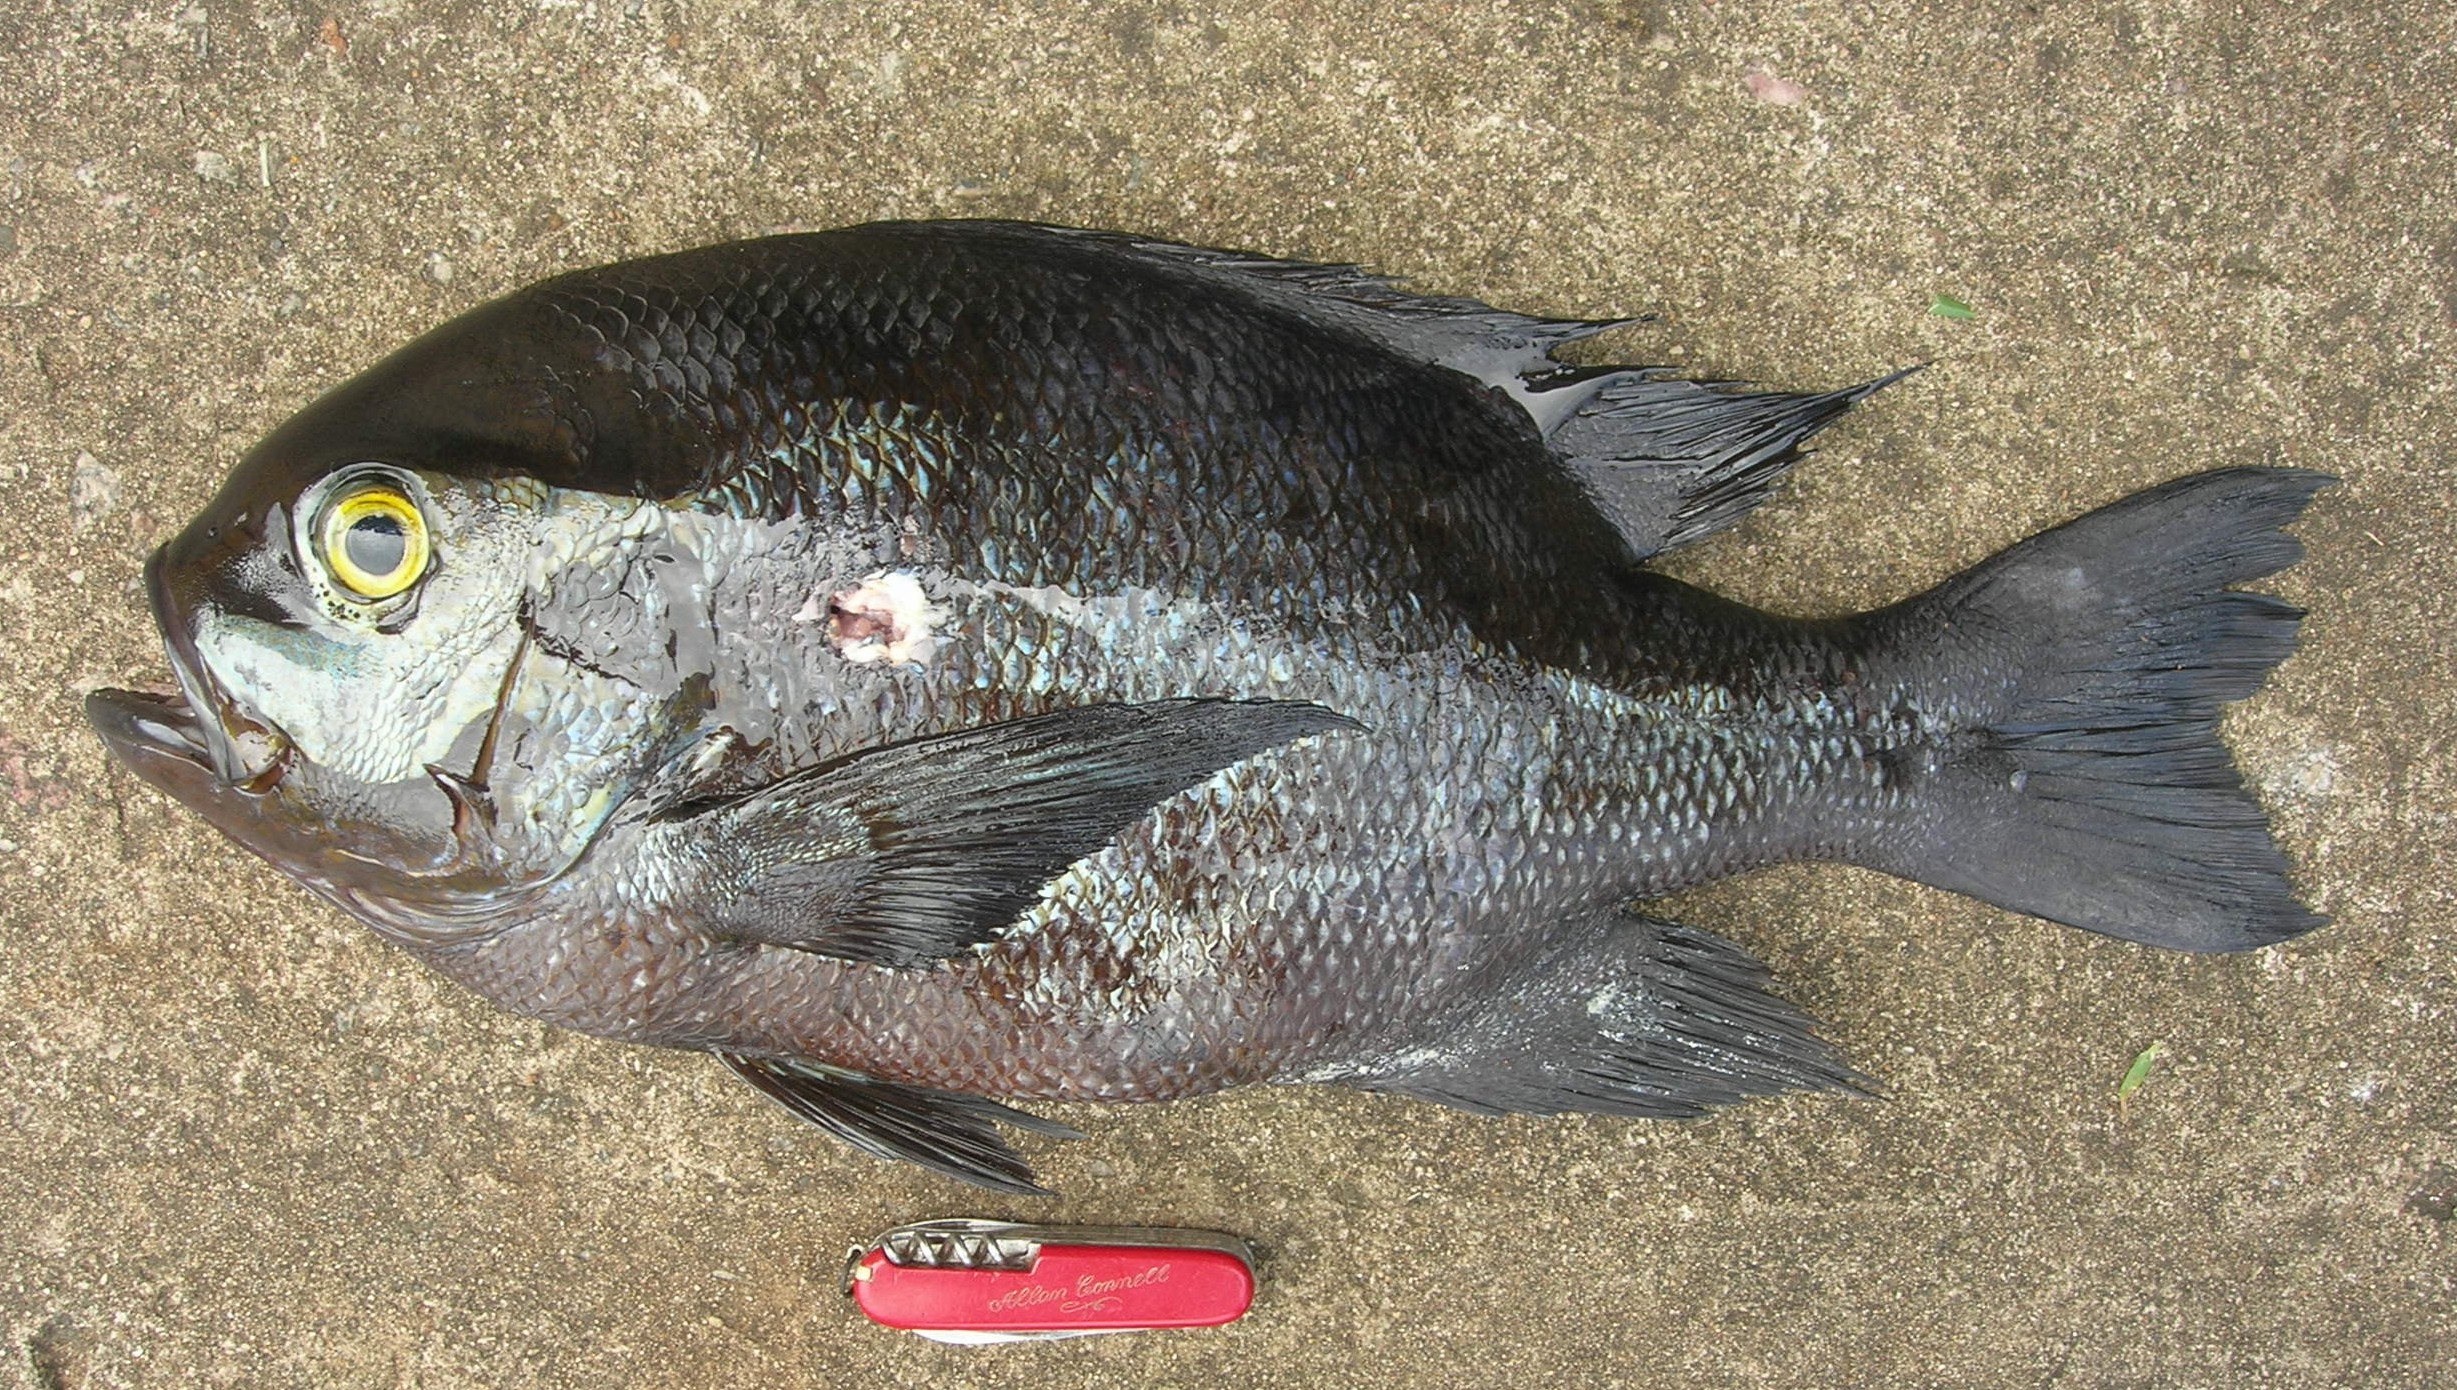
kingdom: Animalia
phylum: Chordata
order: Perciformes
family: Lutjanidae
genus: Macolor
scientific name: Macolor niger
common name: Black snapper
